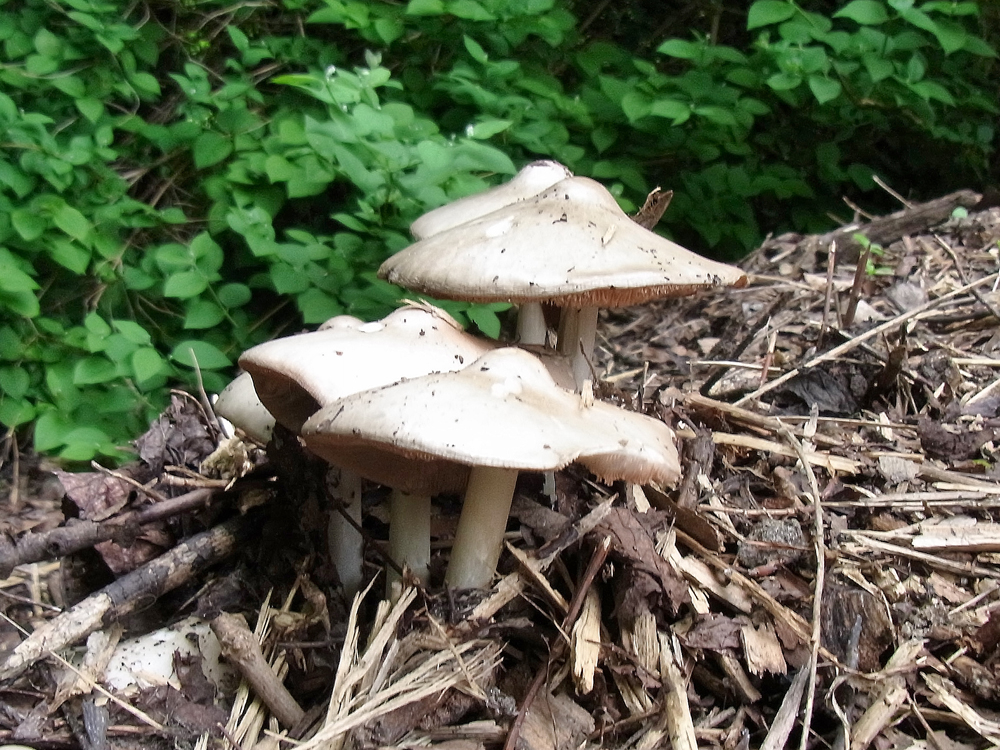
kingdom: Fungi
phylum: Basidiomycota
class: Agaricomycetes
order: Agaricales
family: Pluteaceae
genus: Volvopluteus
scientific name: Volvopluteus gloiocephalus
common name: Stubble rosegill
